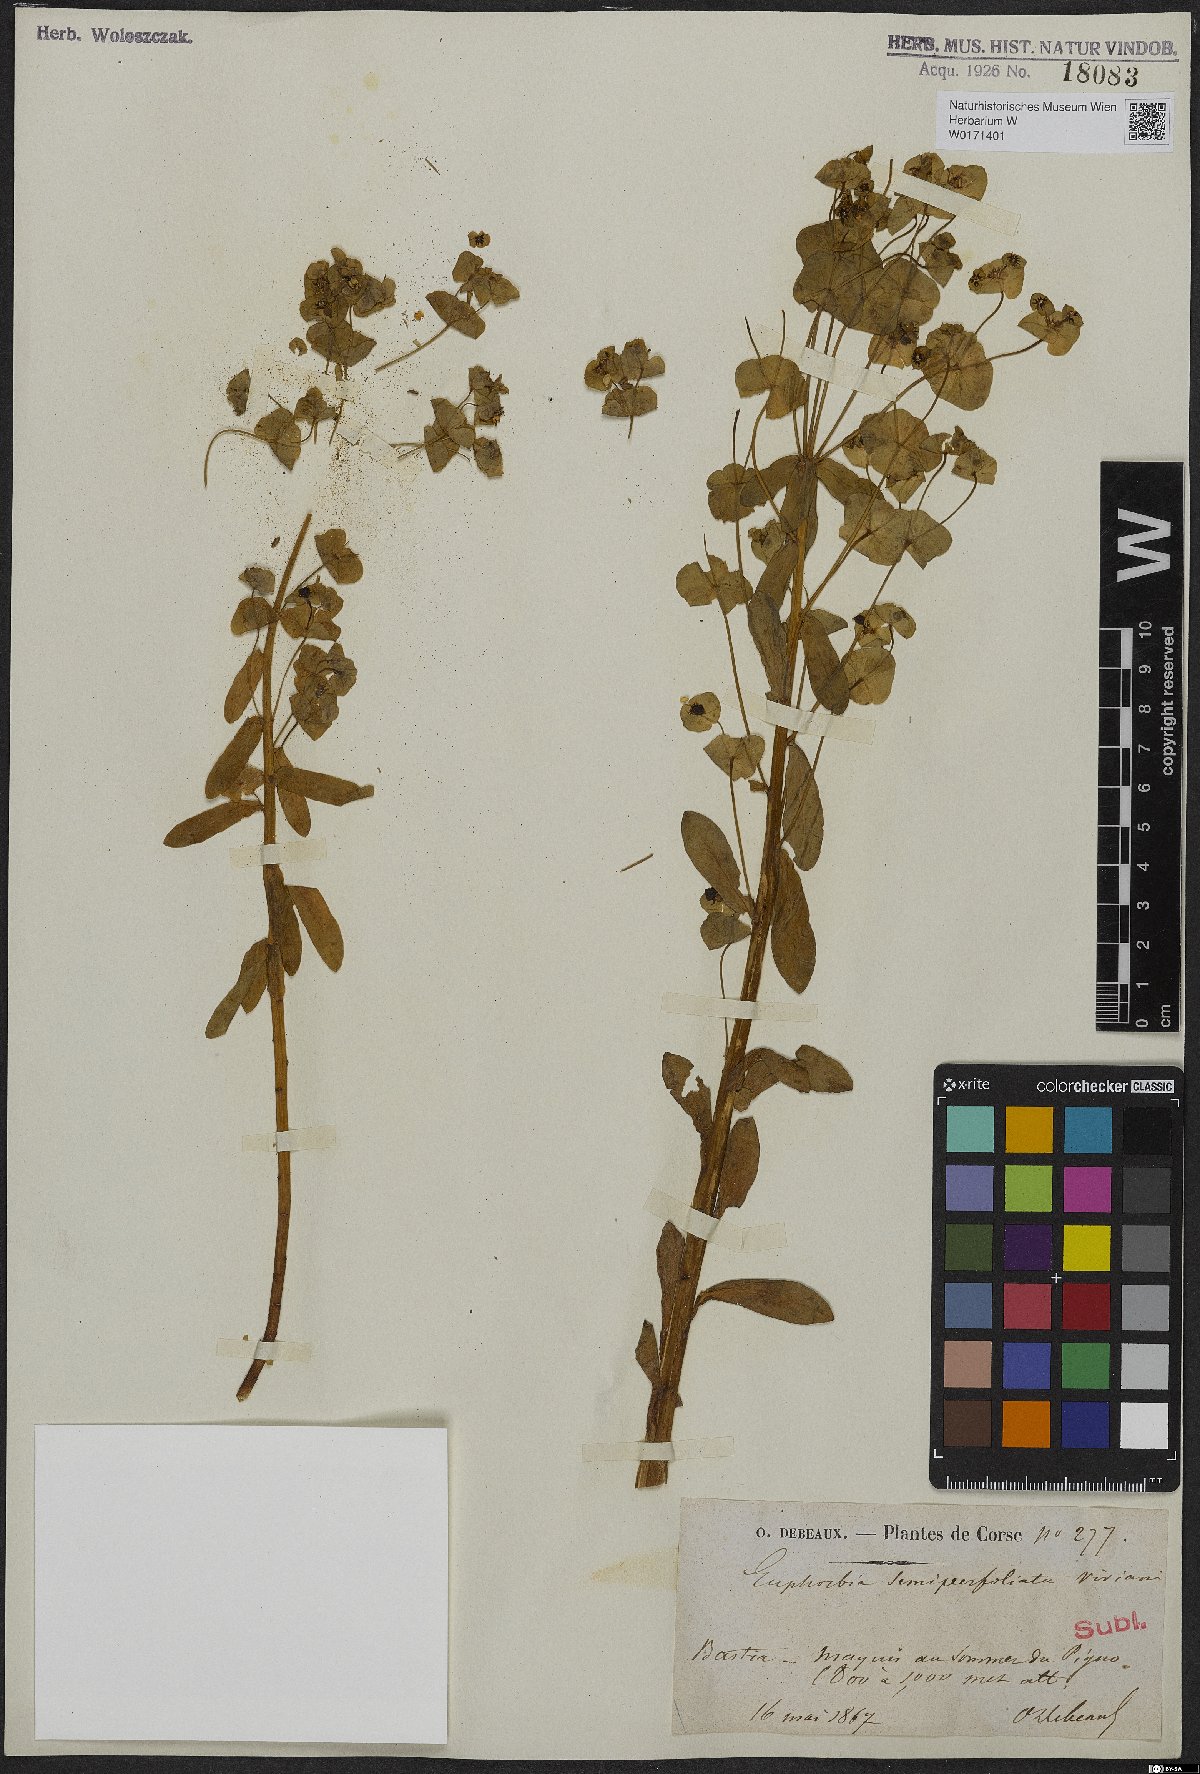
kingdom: Plantae
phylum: Tracheophyta
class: Magnoliopsida
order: Malpighiales
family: Euphorbiaceae
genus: Euphorbia
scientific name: Euphorbia semiperfoliata
